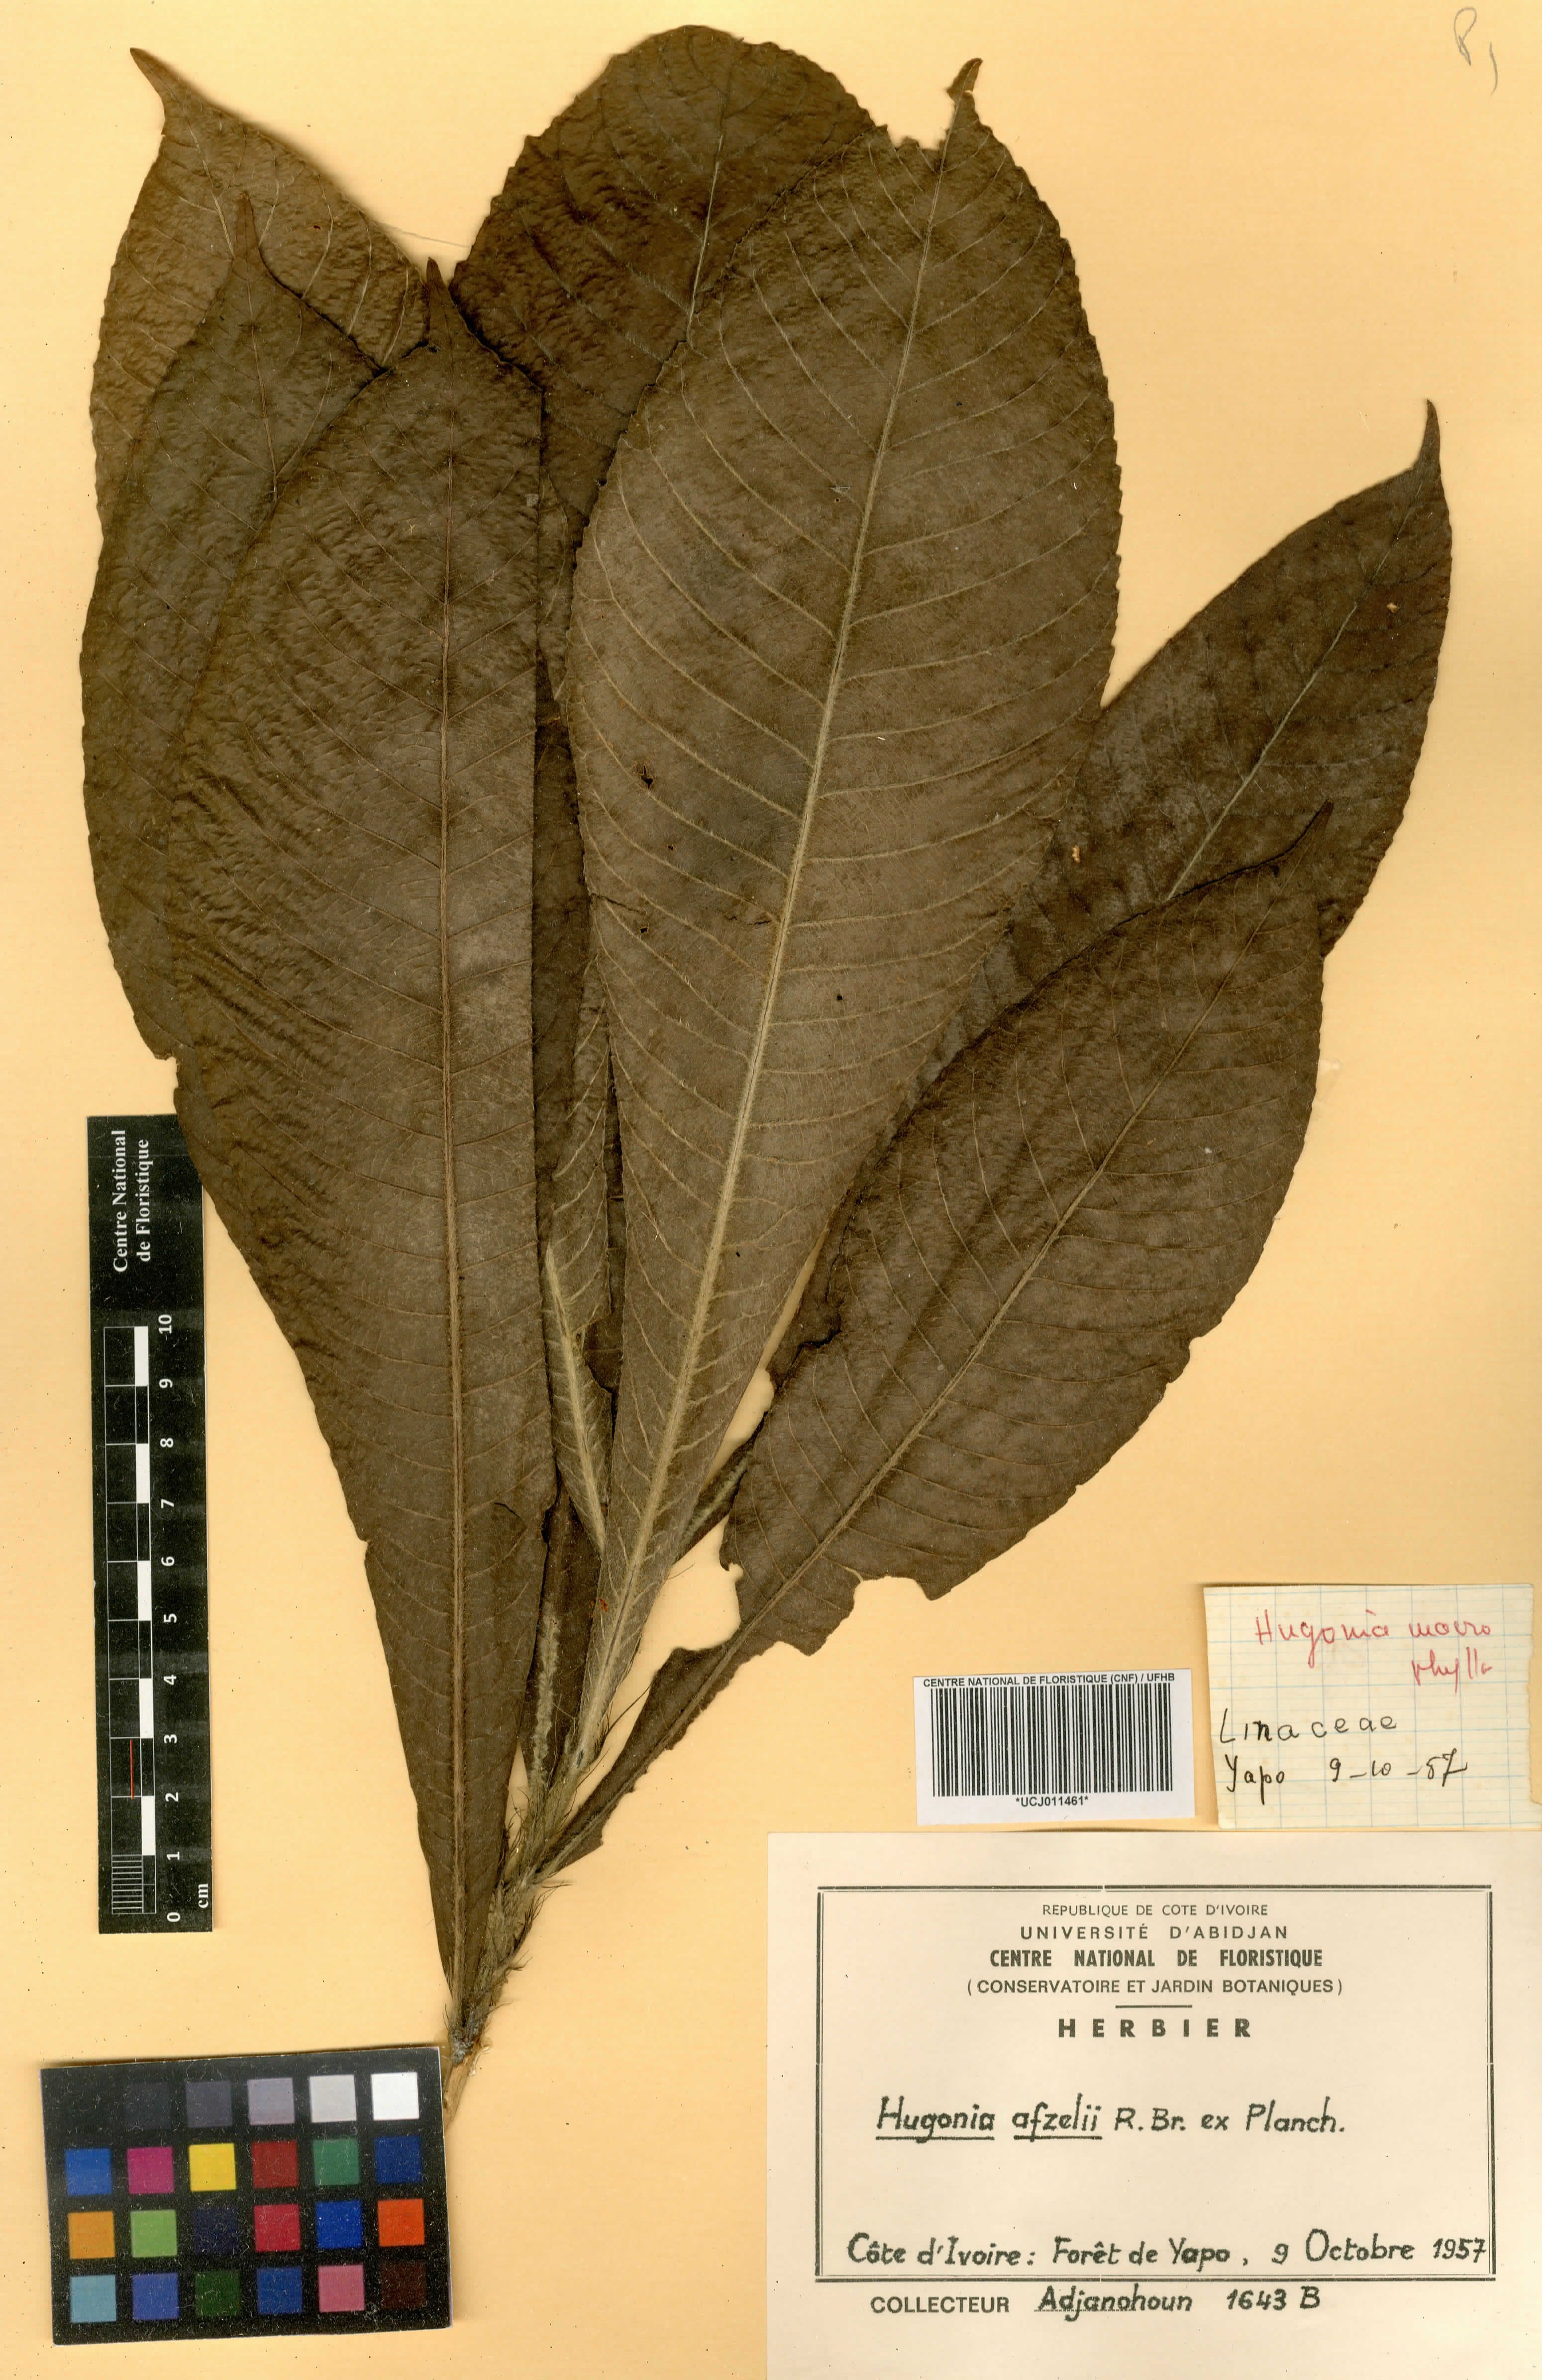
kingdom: Plantae
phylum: Tracheophyta
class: Magnoliopsida
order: Malpighiales
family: Linaceae
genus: Hugonia
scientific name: Hugonia afzelii
